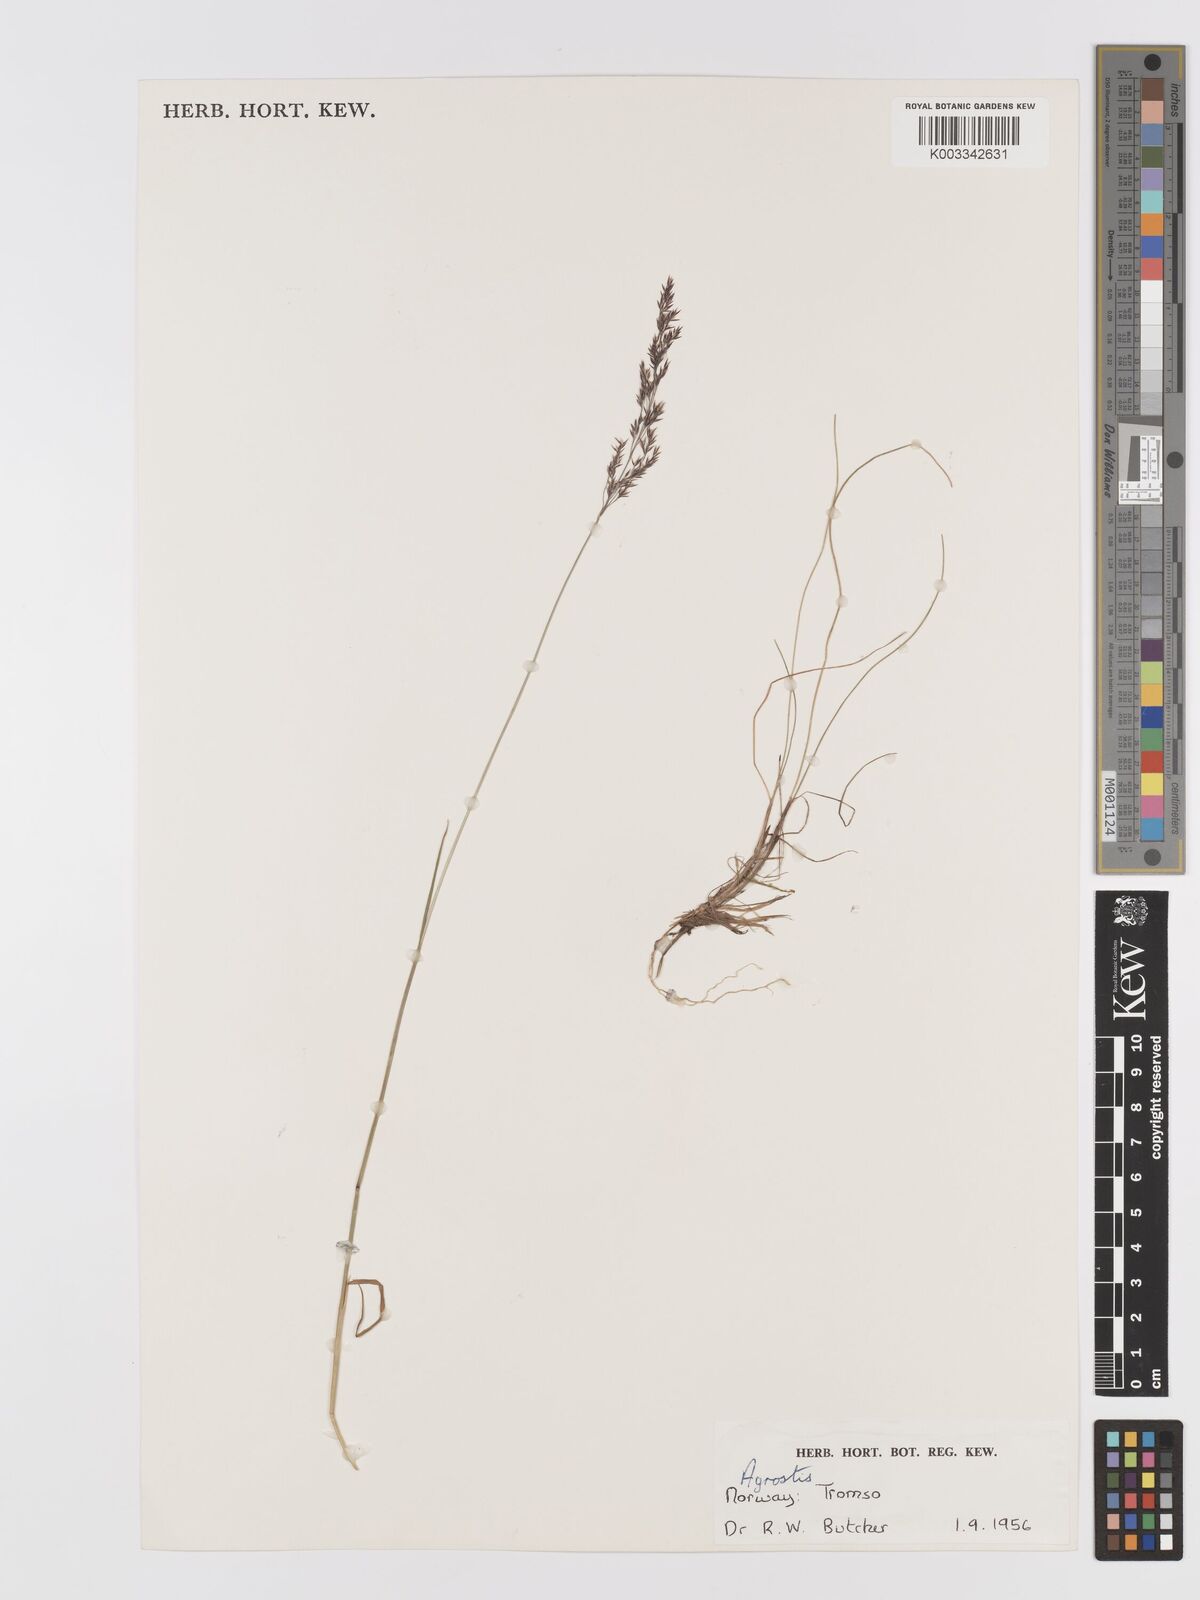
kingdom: Plantae
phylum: Tracheophyta
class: Liliopsida
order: Poales
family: Poaceae
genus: Agrostis
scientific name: Agrostis
